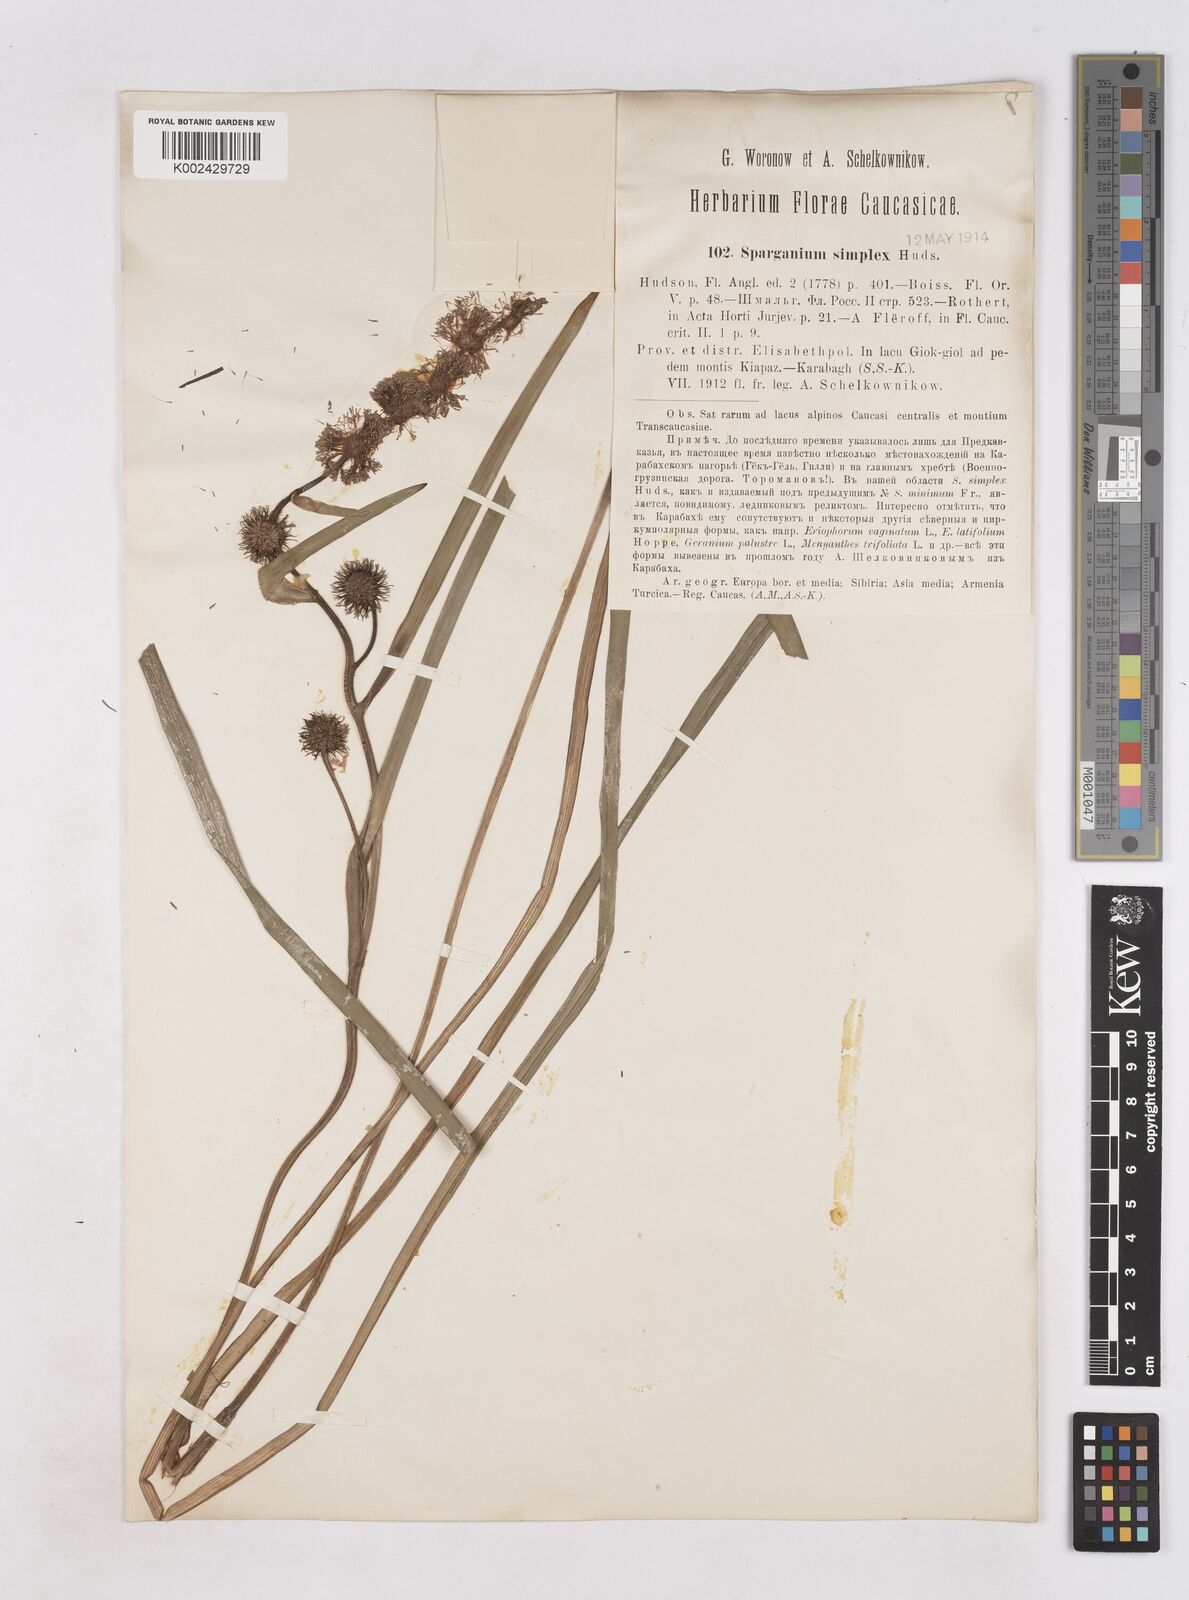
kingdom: Plantae
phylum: Tracheophyta
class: Liliopsida
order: Poales
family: Typhaceae
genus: Sparganium
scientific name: Sparganium angustifolium
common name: Floating bur-reed
